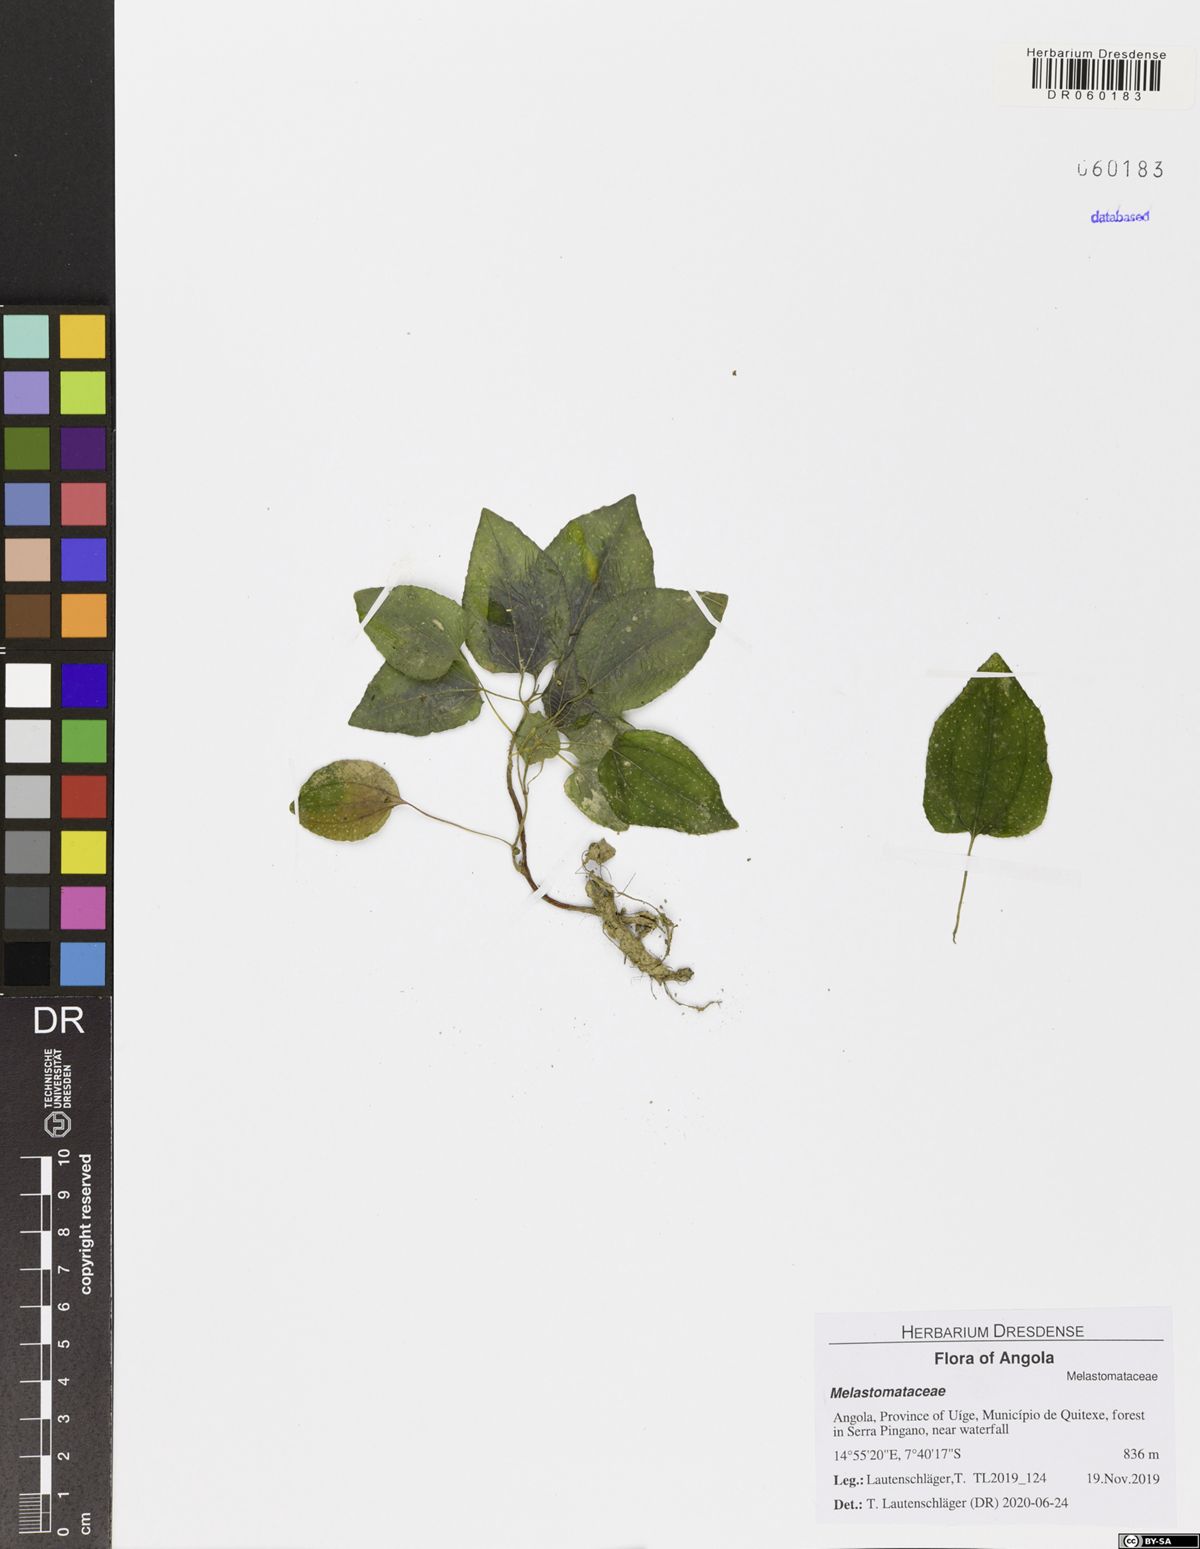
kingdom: Plantae
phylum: Tracheophyta
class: Magnoliopsida
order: Myrtales
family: Melastomataceae
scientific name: Melastomataceae
